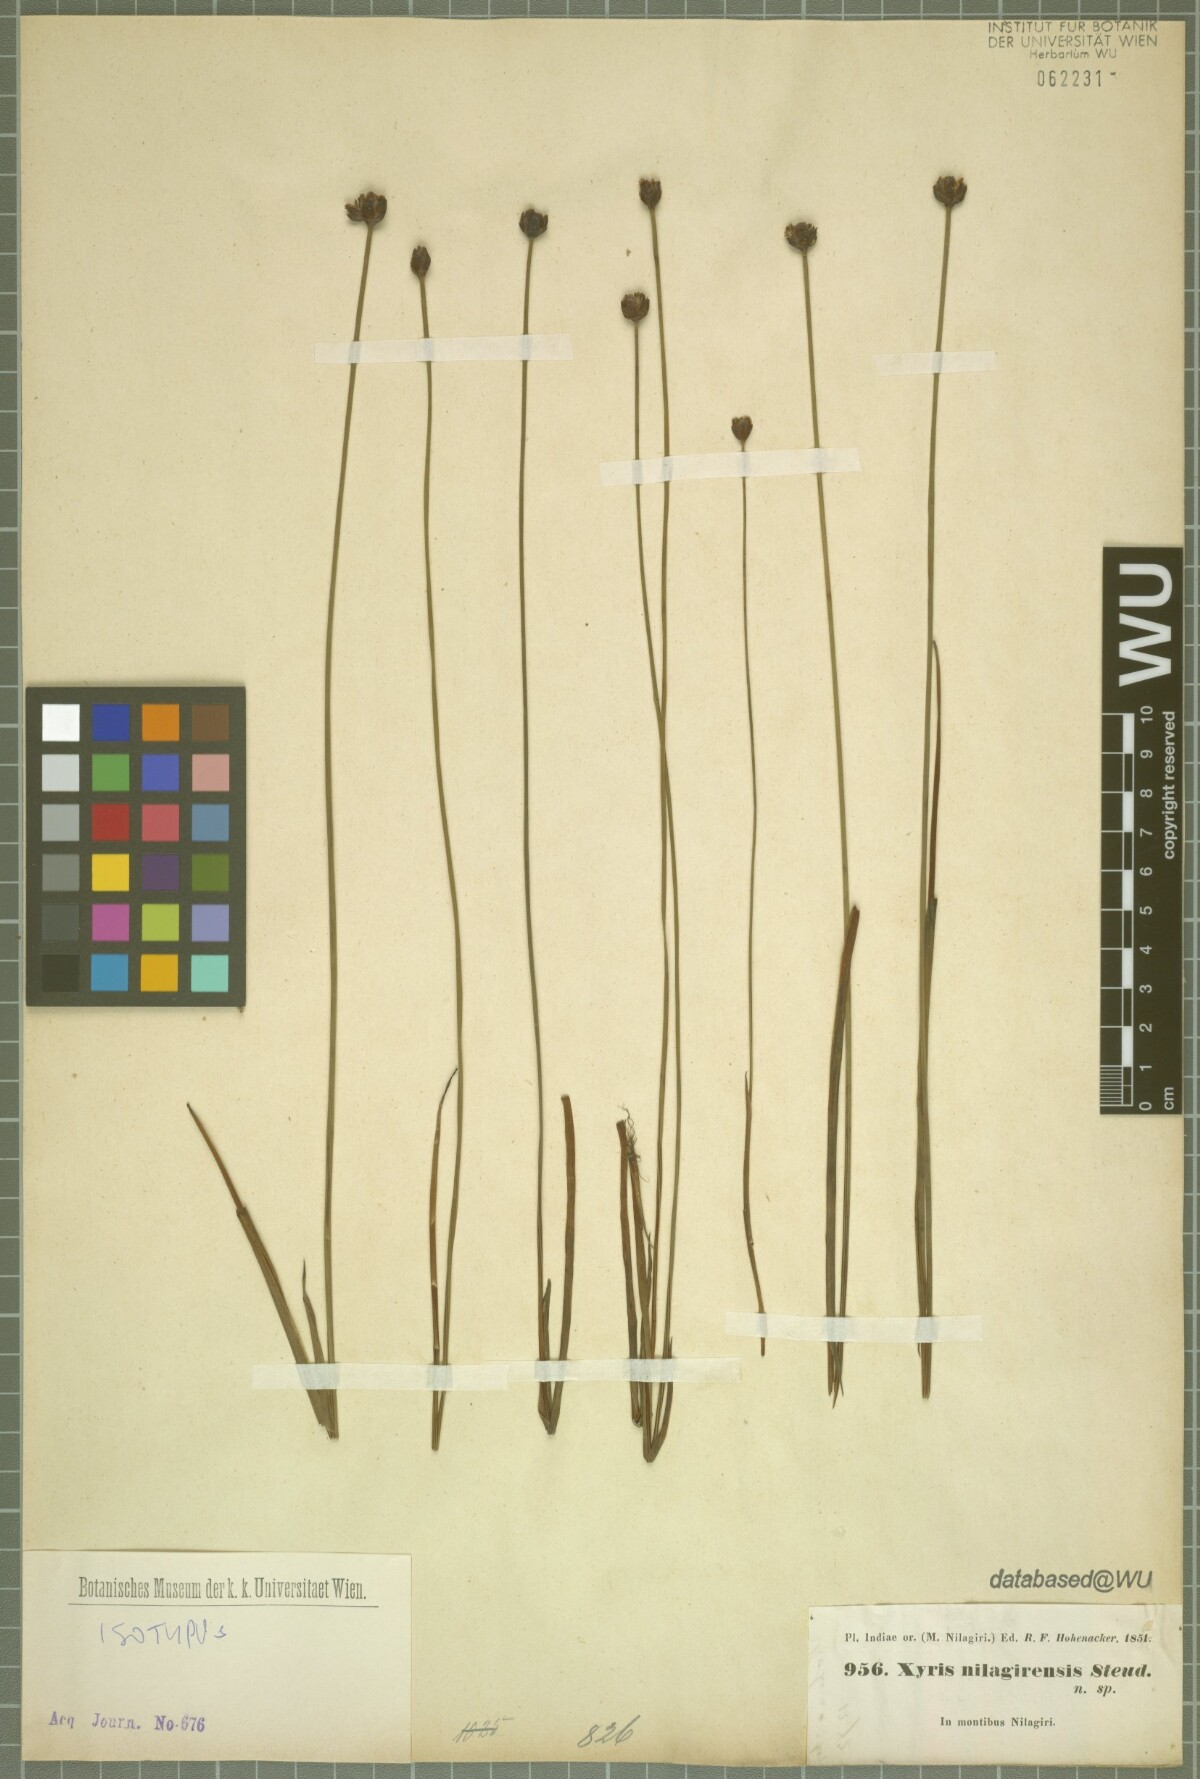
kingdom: Plantae
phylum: Tracheophyta
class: Liliopsida
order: Poales
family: Xyridaceae
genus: Xyris
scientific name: Xyris capensis
